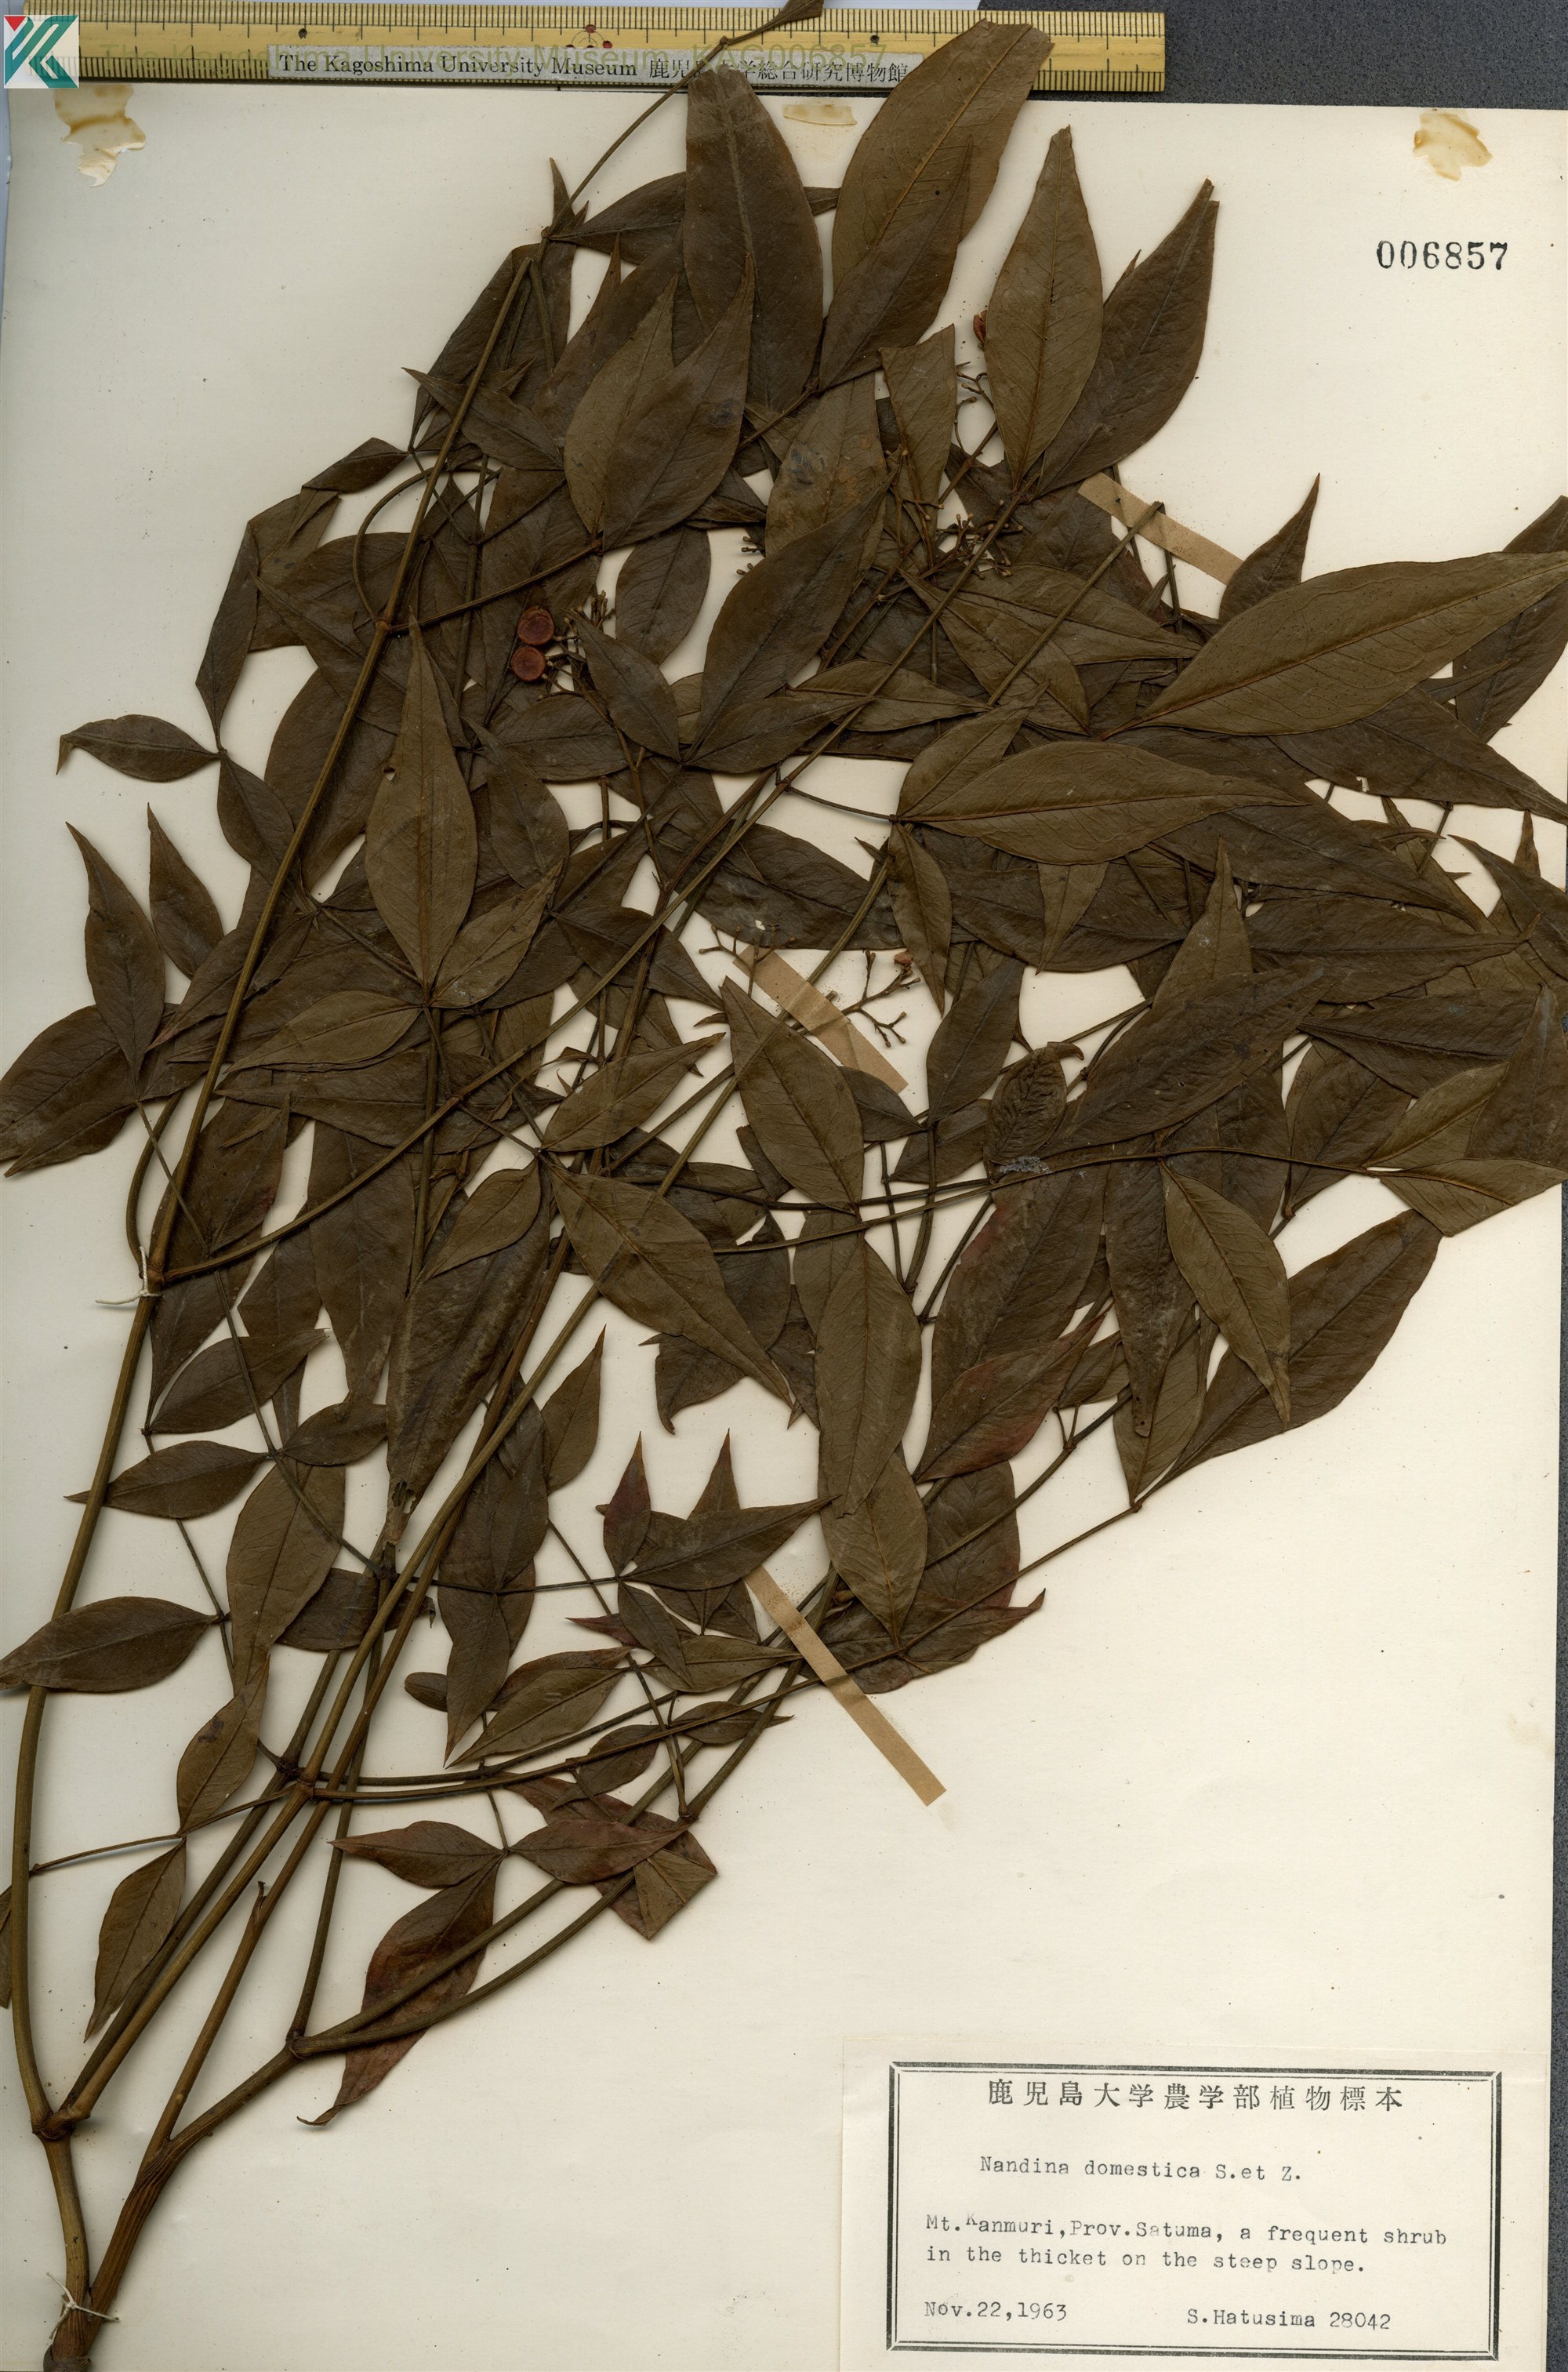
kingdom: Plantae
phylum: Tracheophyta
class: Magnoliopsida
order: Ranunculales
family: Berberidaceae
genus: Nandina
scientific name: Nandina domestica
